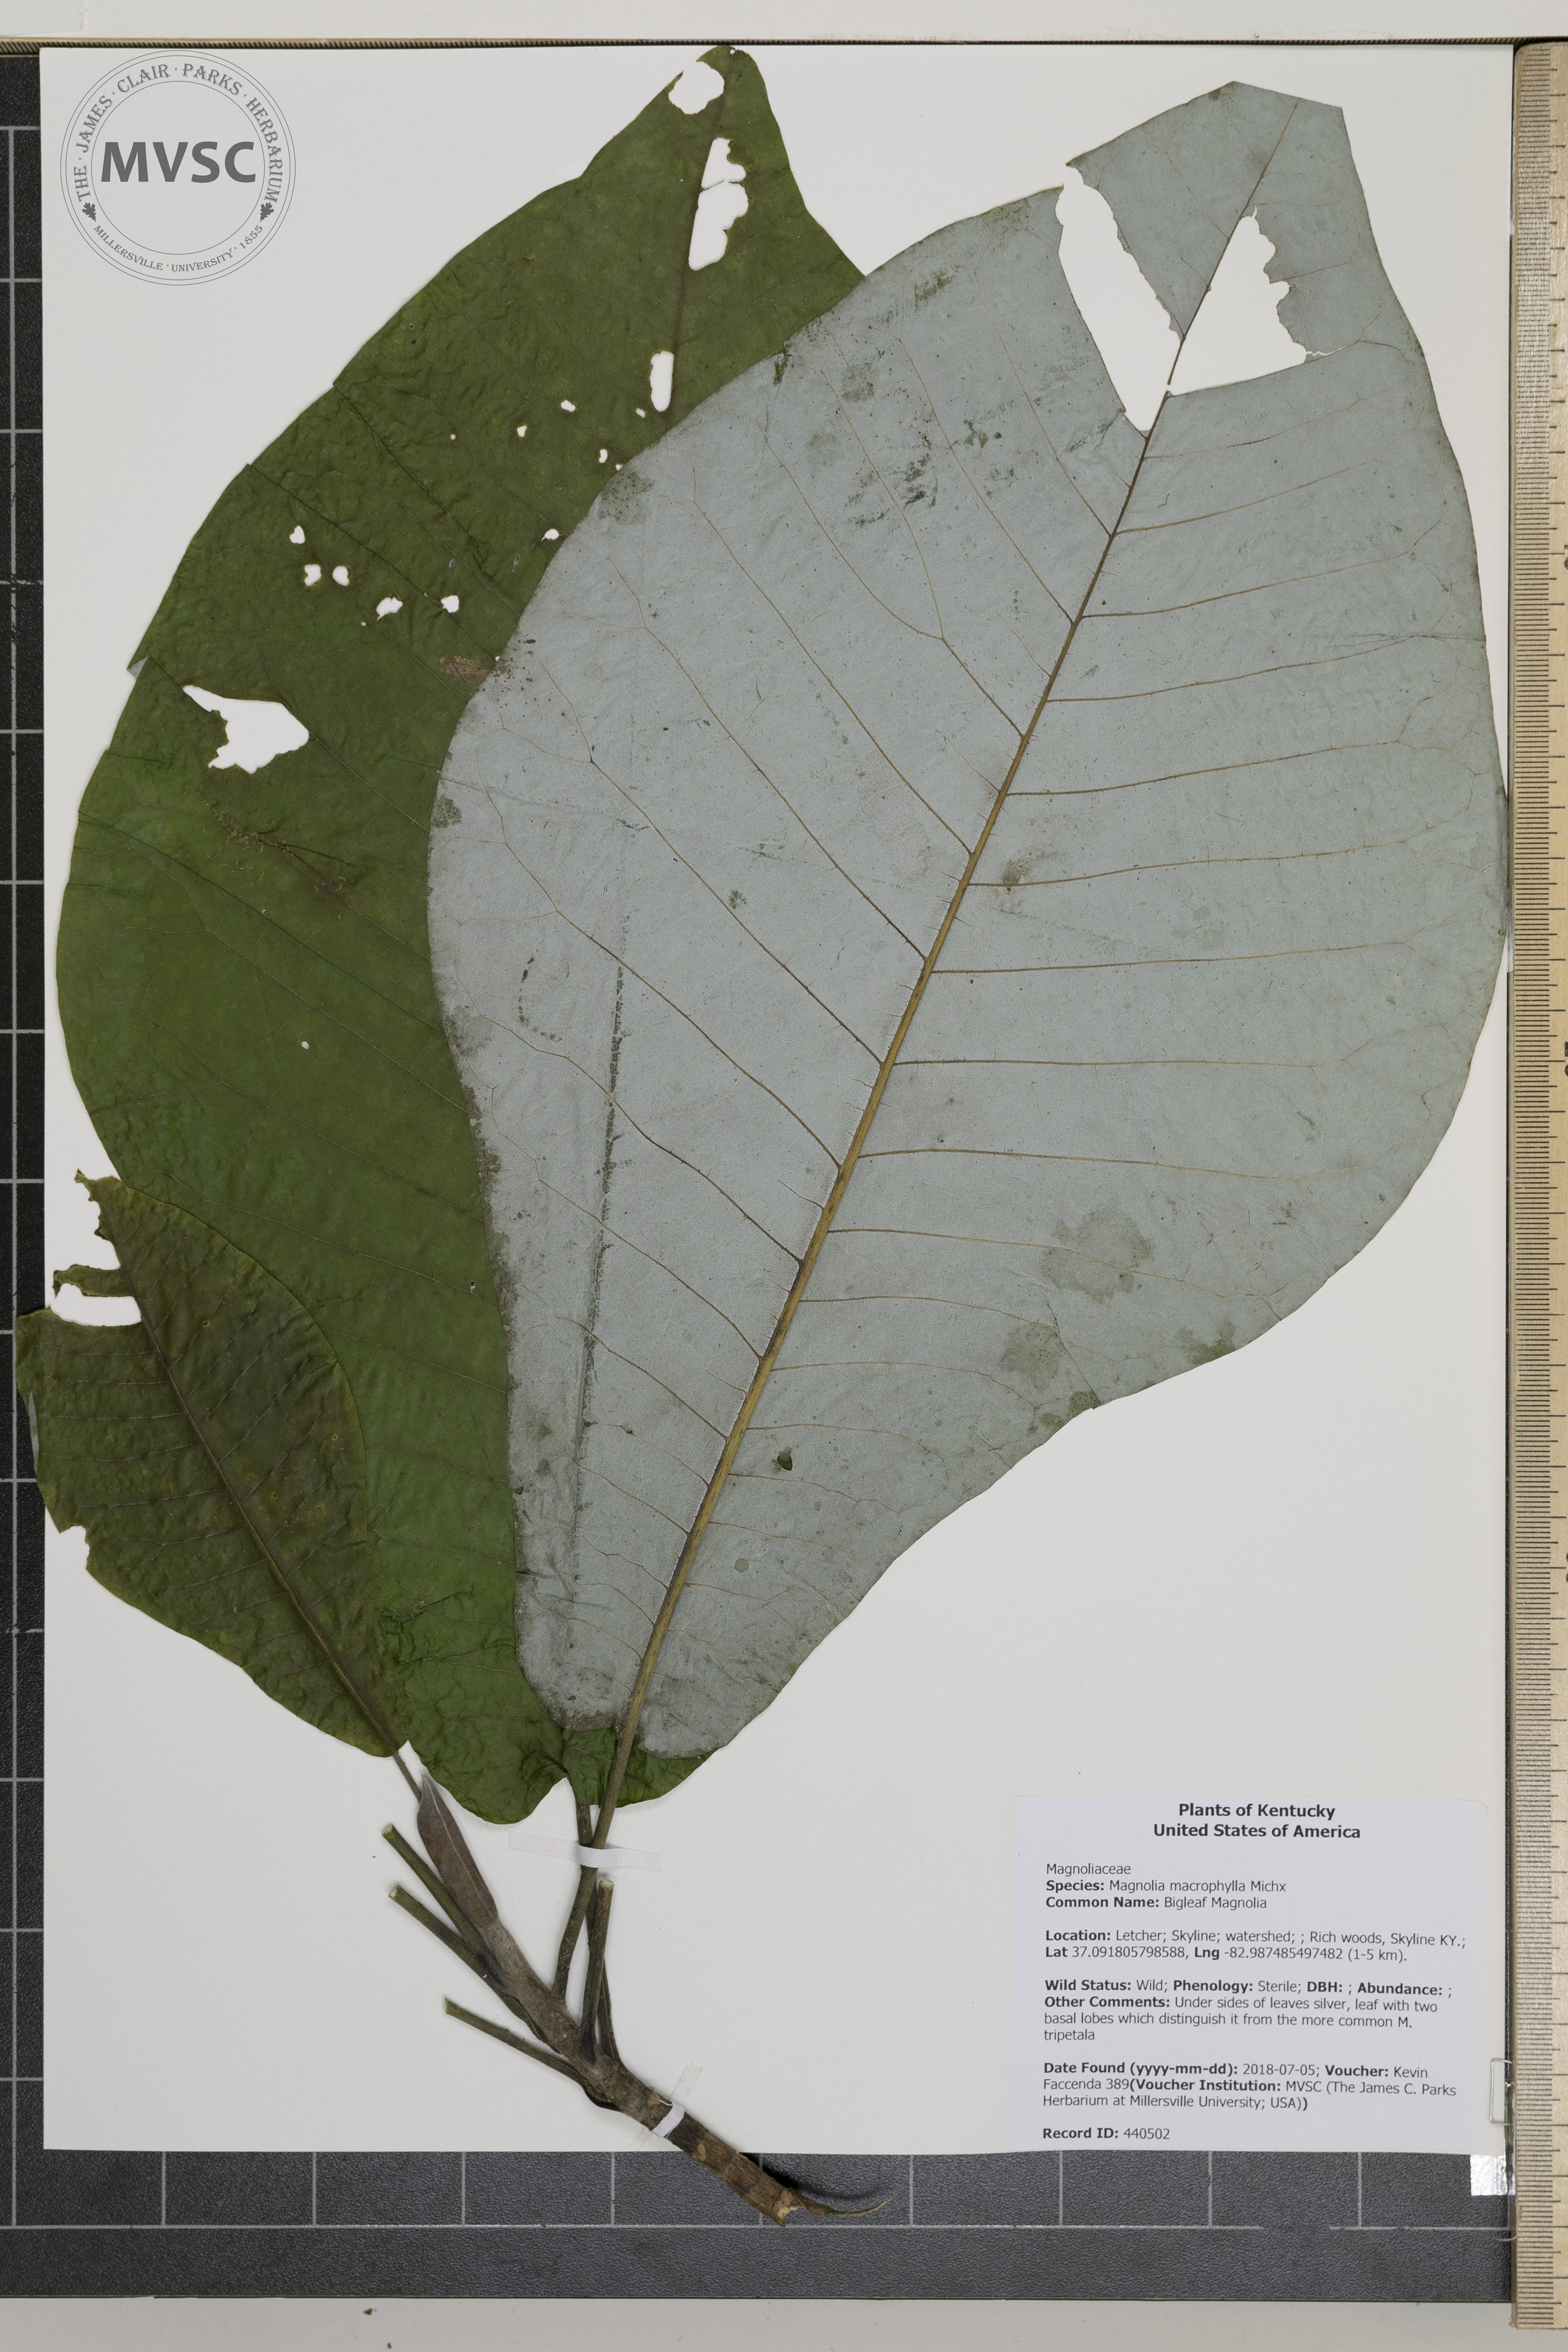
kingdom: Plantae
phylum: Tracheophyta
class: Magnoliopsida
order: Magnoliales
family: Magnoliaceae
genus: Magnolia
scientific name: Magnolia macrophylla
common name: Bigleaf Magnolia
